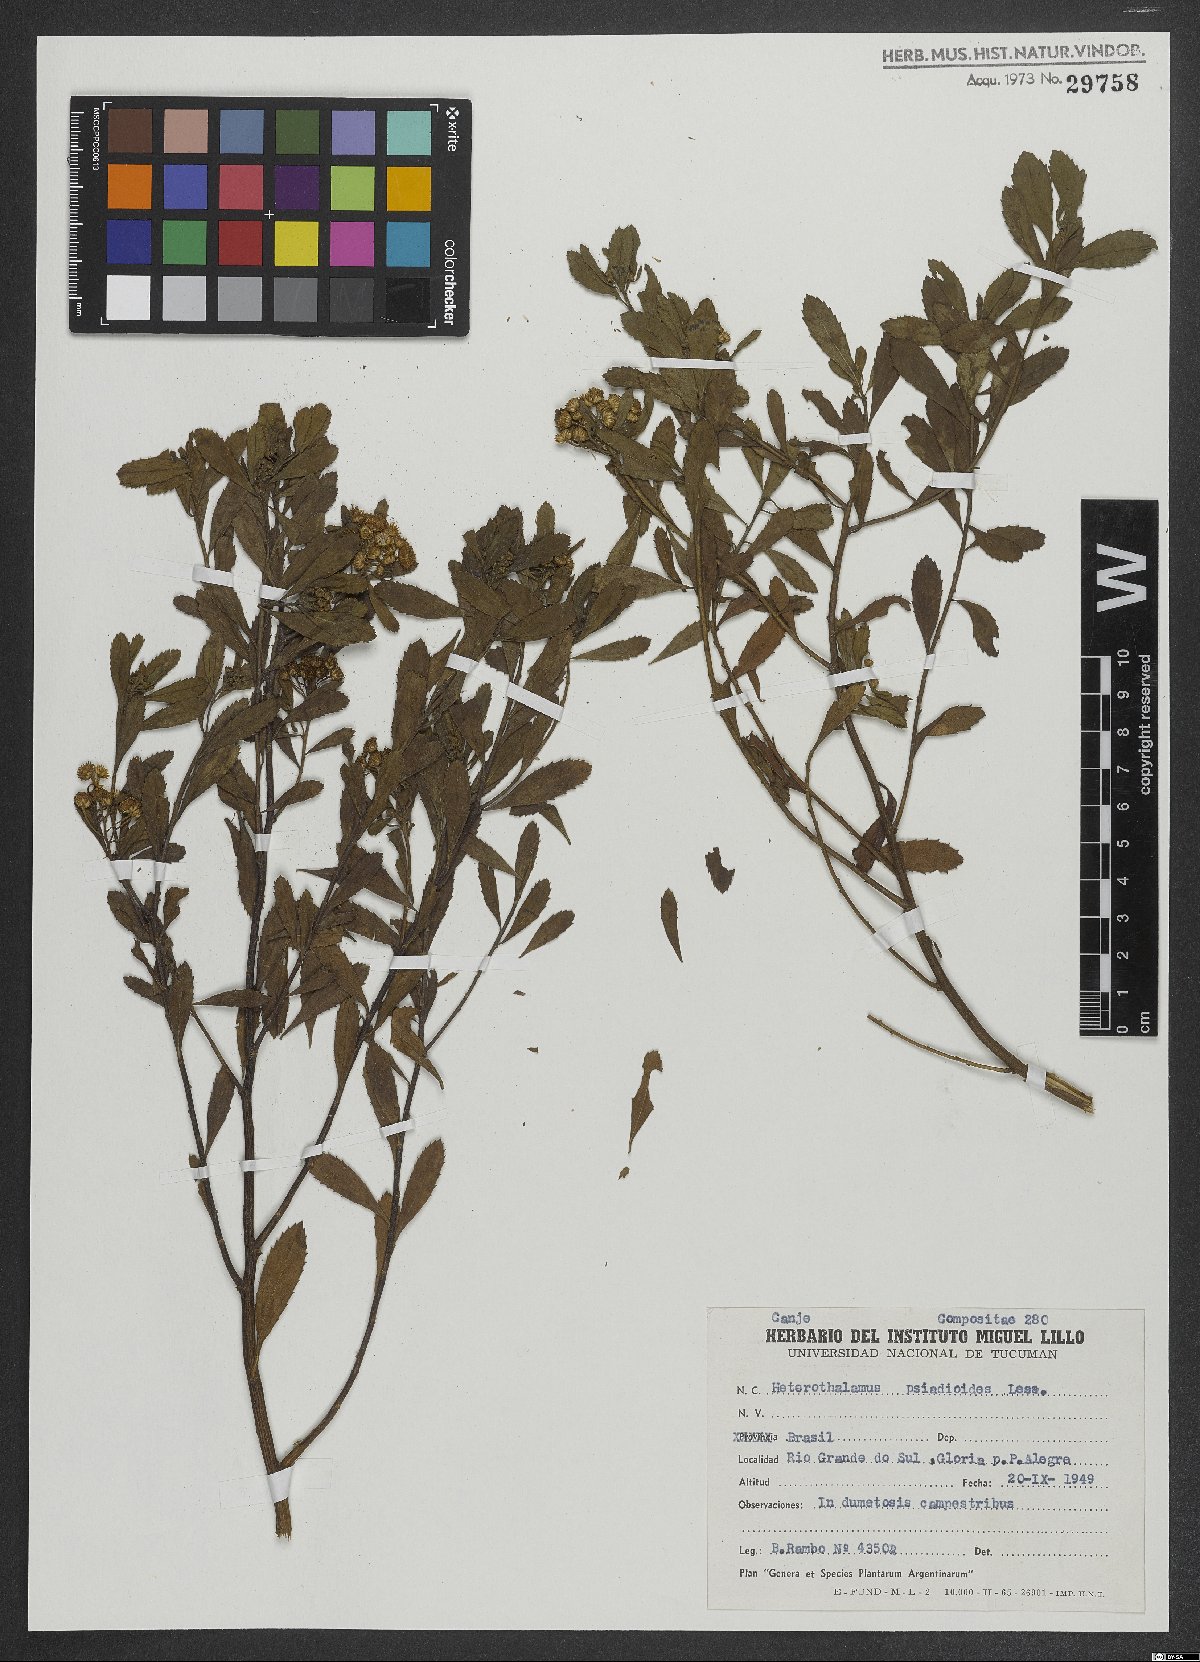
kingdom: Plantae
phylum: Tracheophyta
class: Magnoliopsida
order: Asterales
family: Asteraceae
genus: Baccharis
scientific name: Baccharis psiadioides
